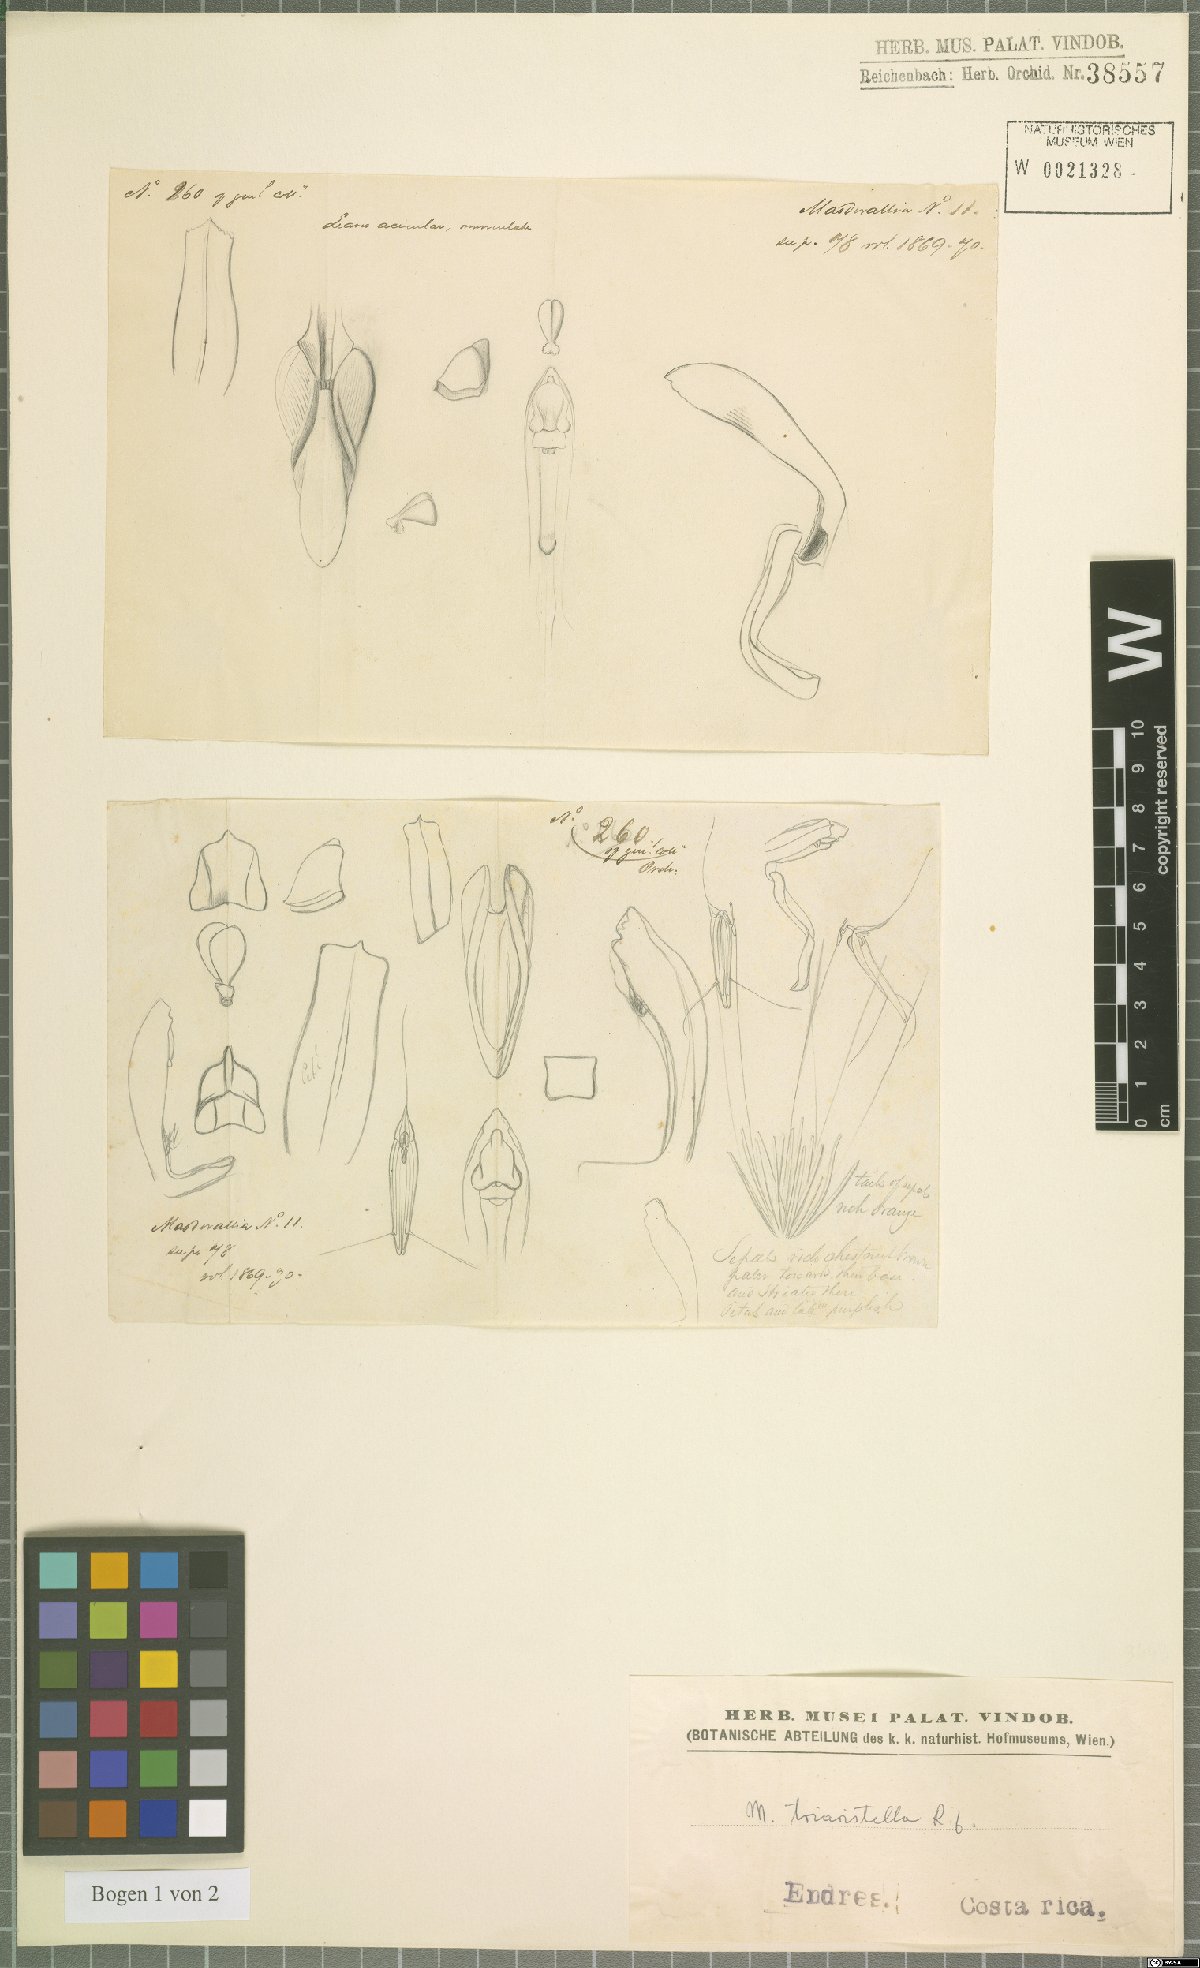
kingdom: Plantae
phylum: Tracheophyta
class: Liliopsida
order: Asparagales
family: Orchidaceae
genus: Trisetella
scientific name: Trisetella triaristella
